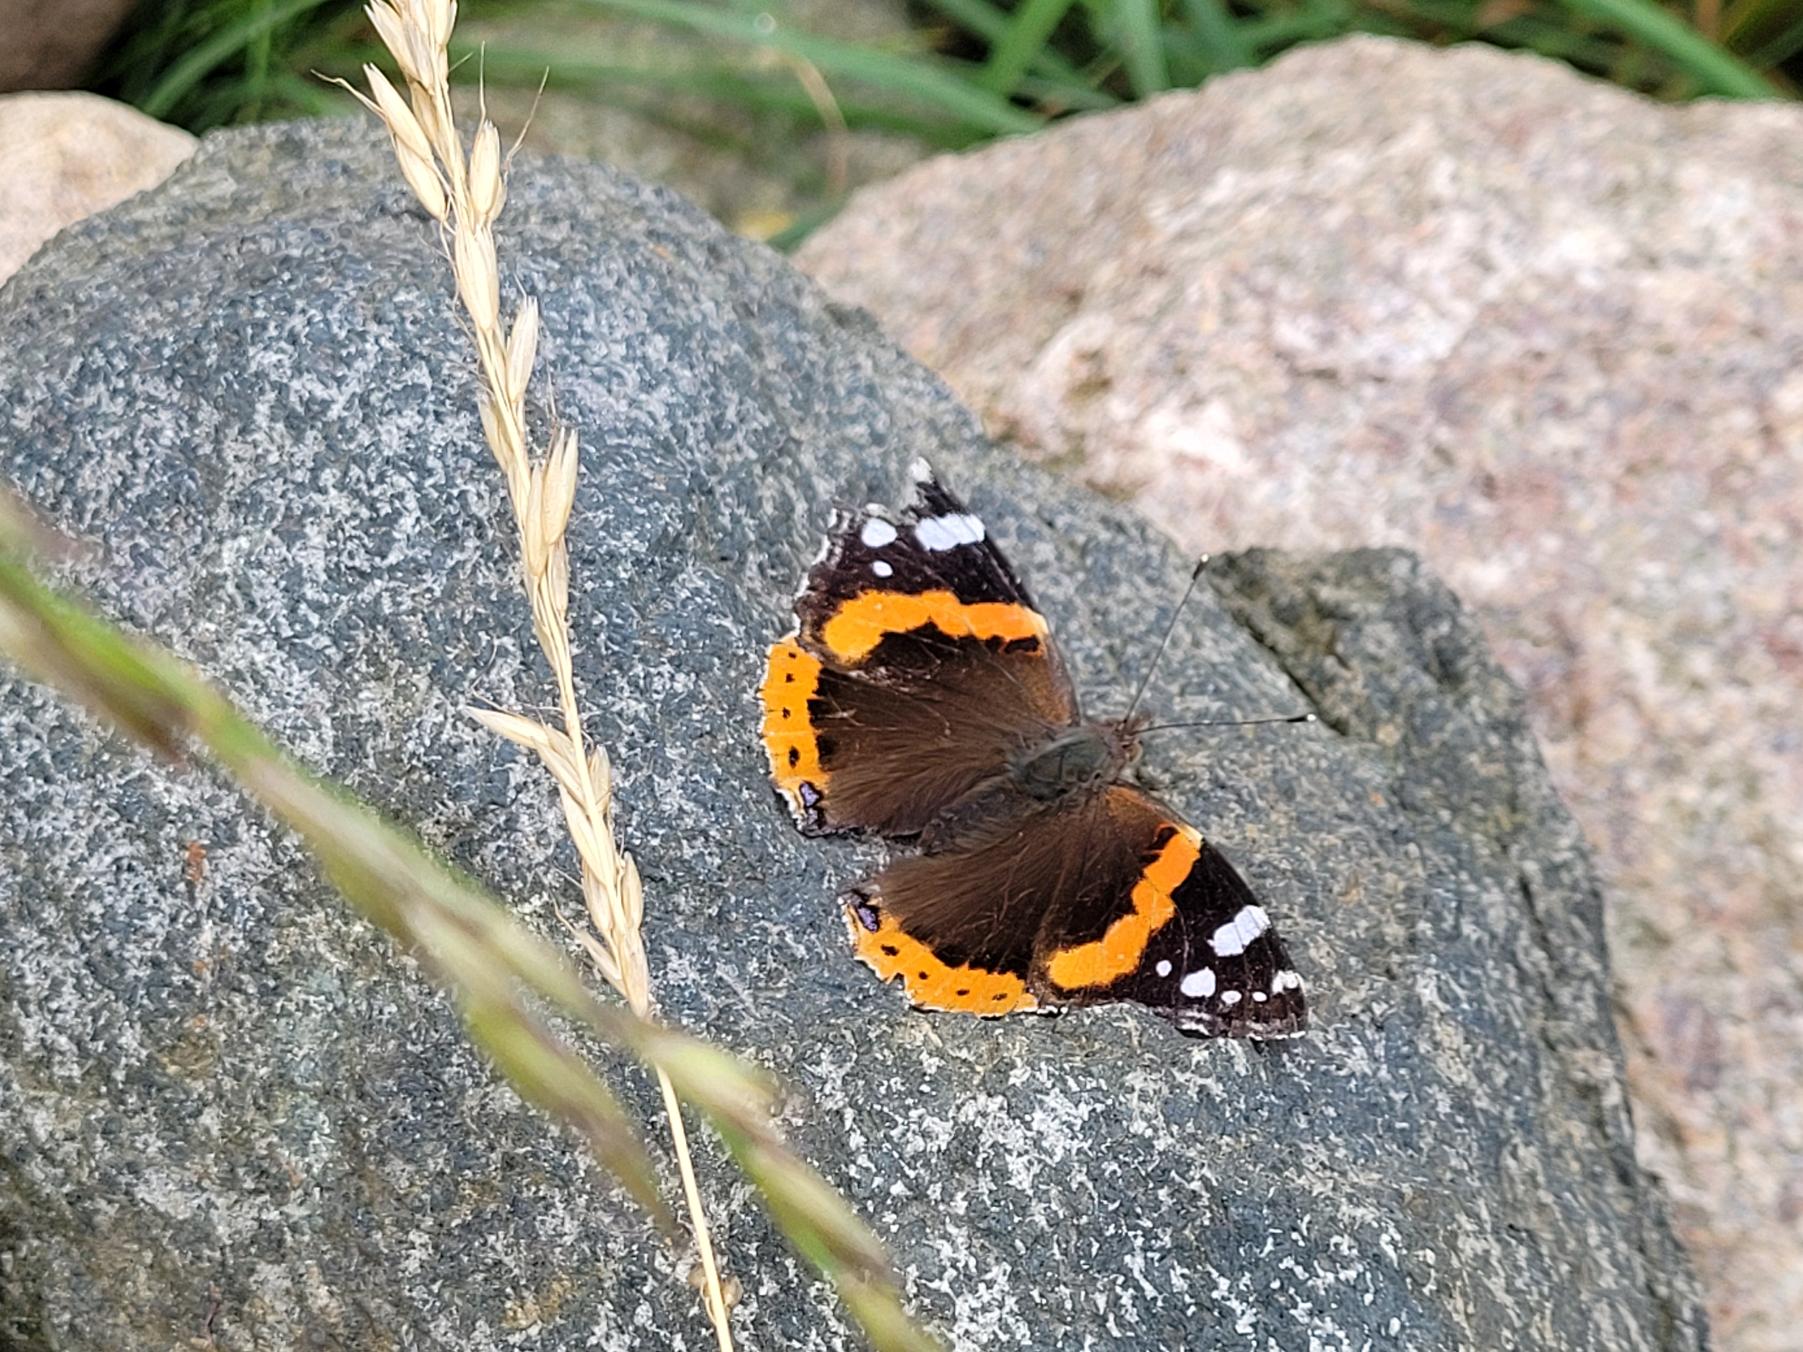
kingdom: Animalia
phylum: Arthropoda
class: Insecta
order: Lepidoptera
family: Nymphalidae
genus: Vanessa
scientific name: Vanessa atalanta
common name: Admiral
